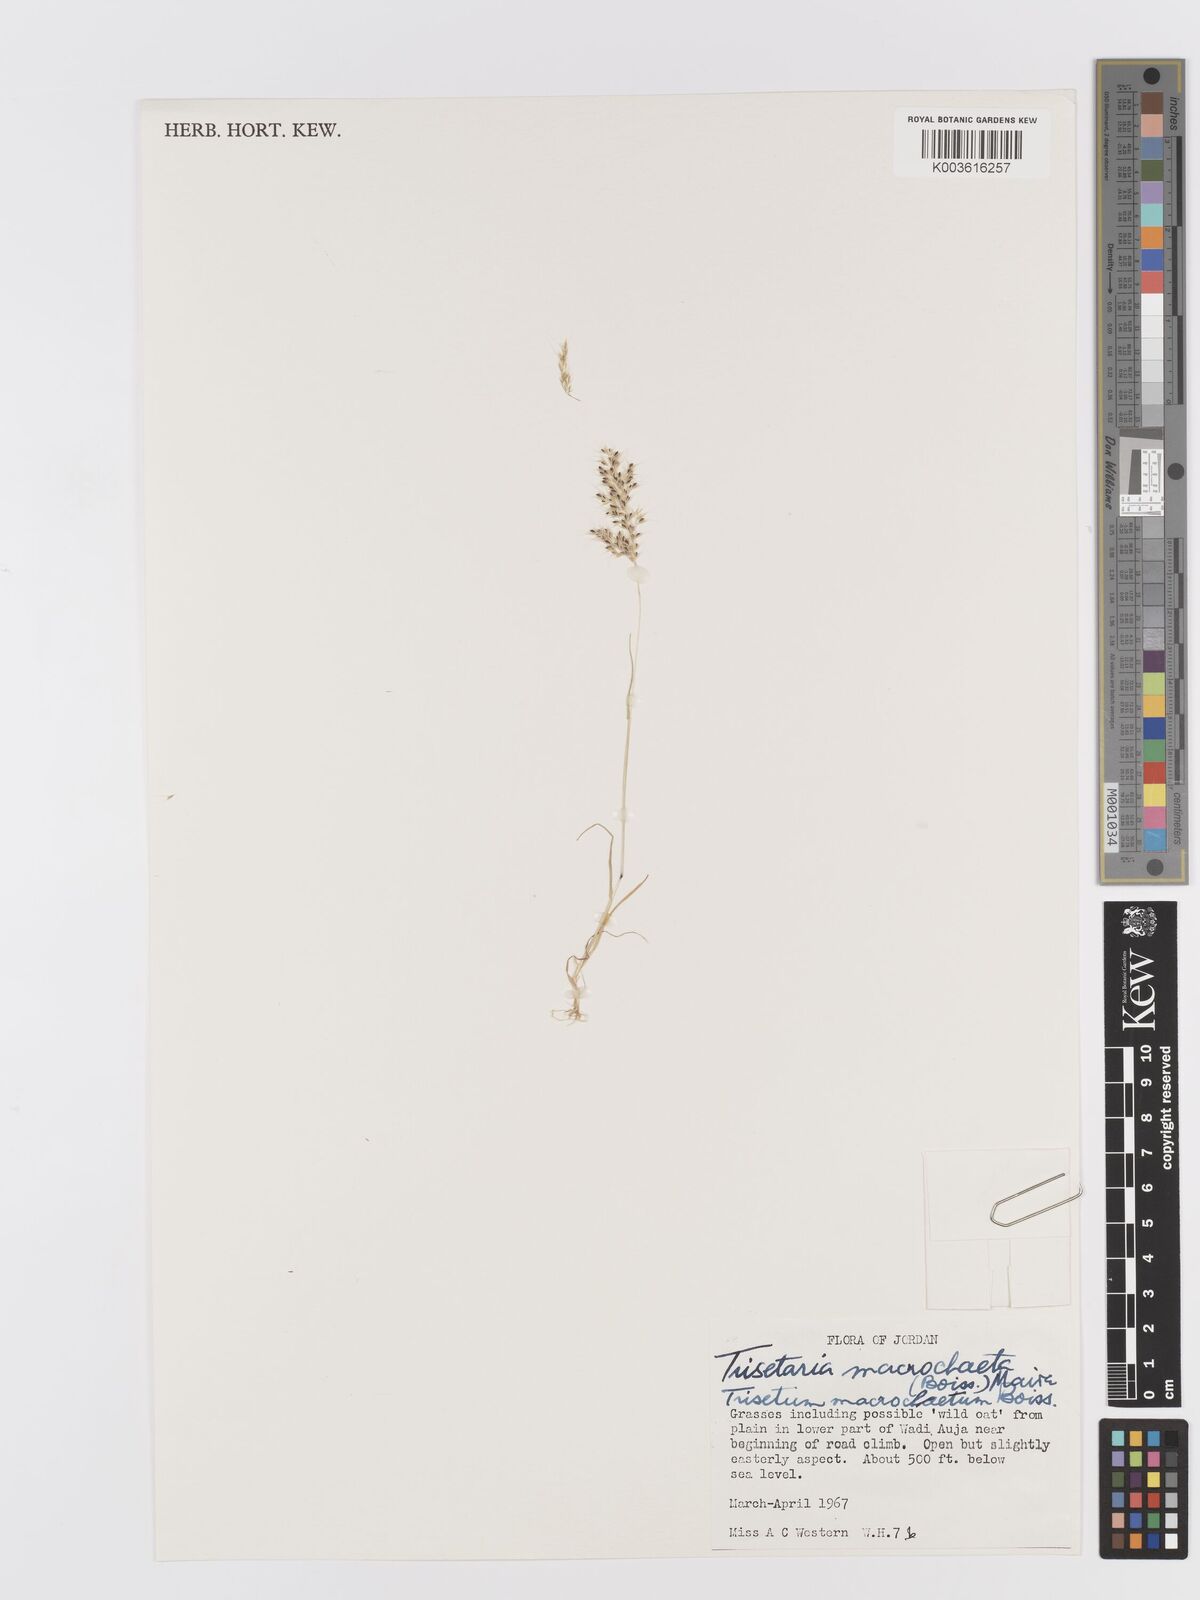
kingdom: Plantae
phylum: Tracheophyta
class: Liliopsida
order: Poales
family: Poaceae
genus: Trisetaria
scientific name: Trisetaria macrochaeta
